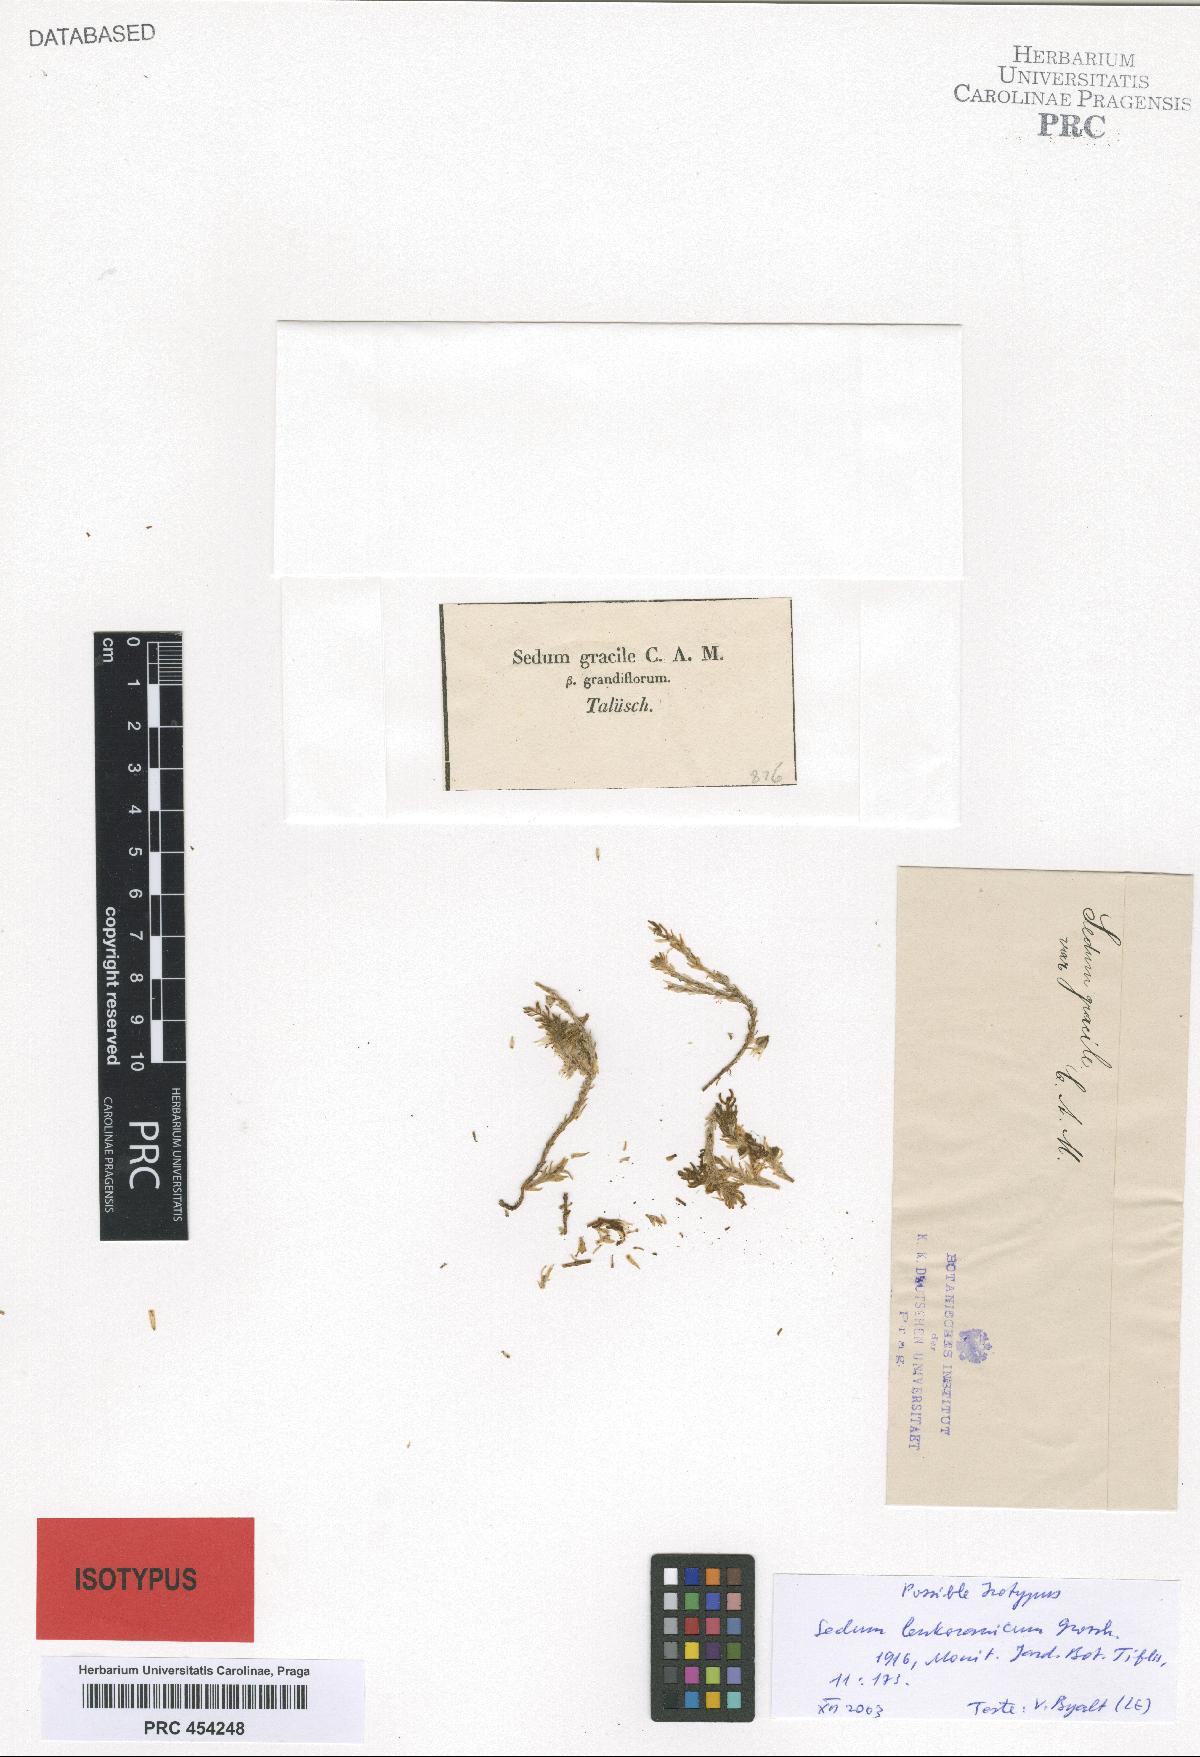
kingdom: Plantae
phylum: Tracheophyta
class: Magnoliopsida
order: Saxifragales
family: Crassulaceae
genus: Sedum
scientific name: Sedum lenkoranicum
